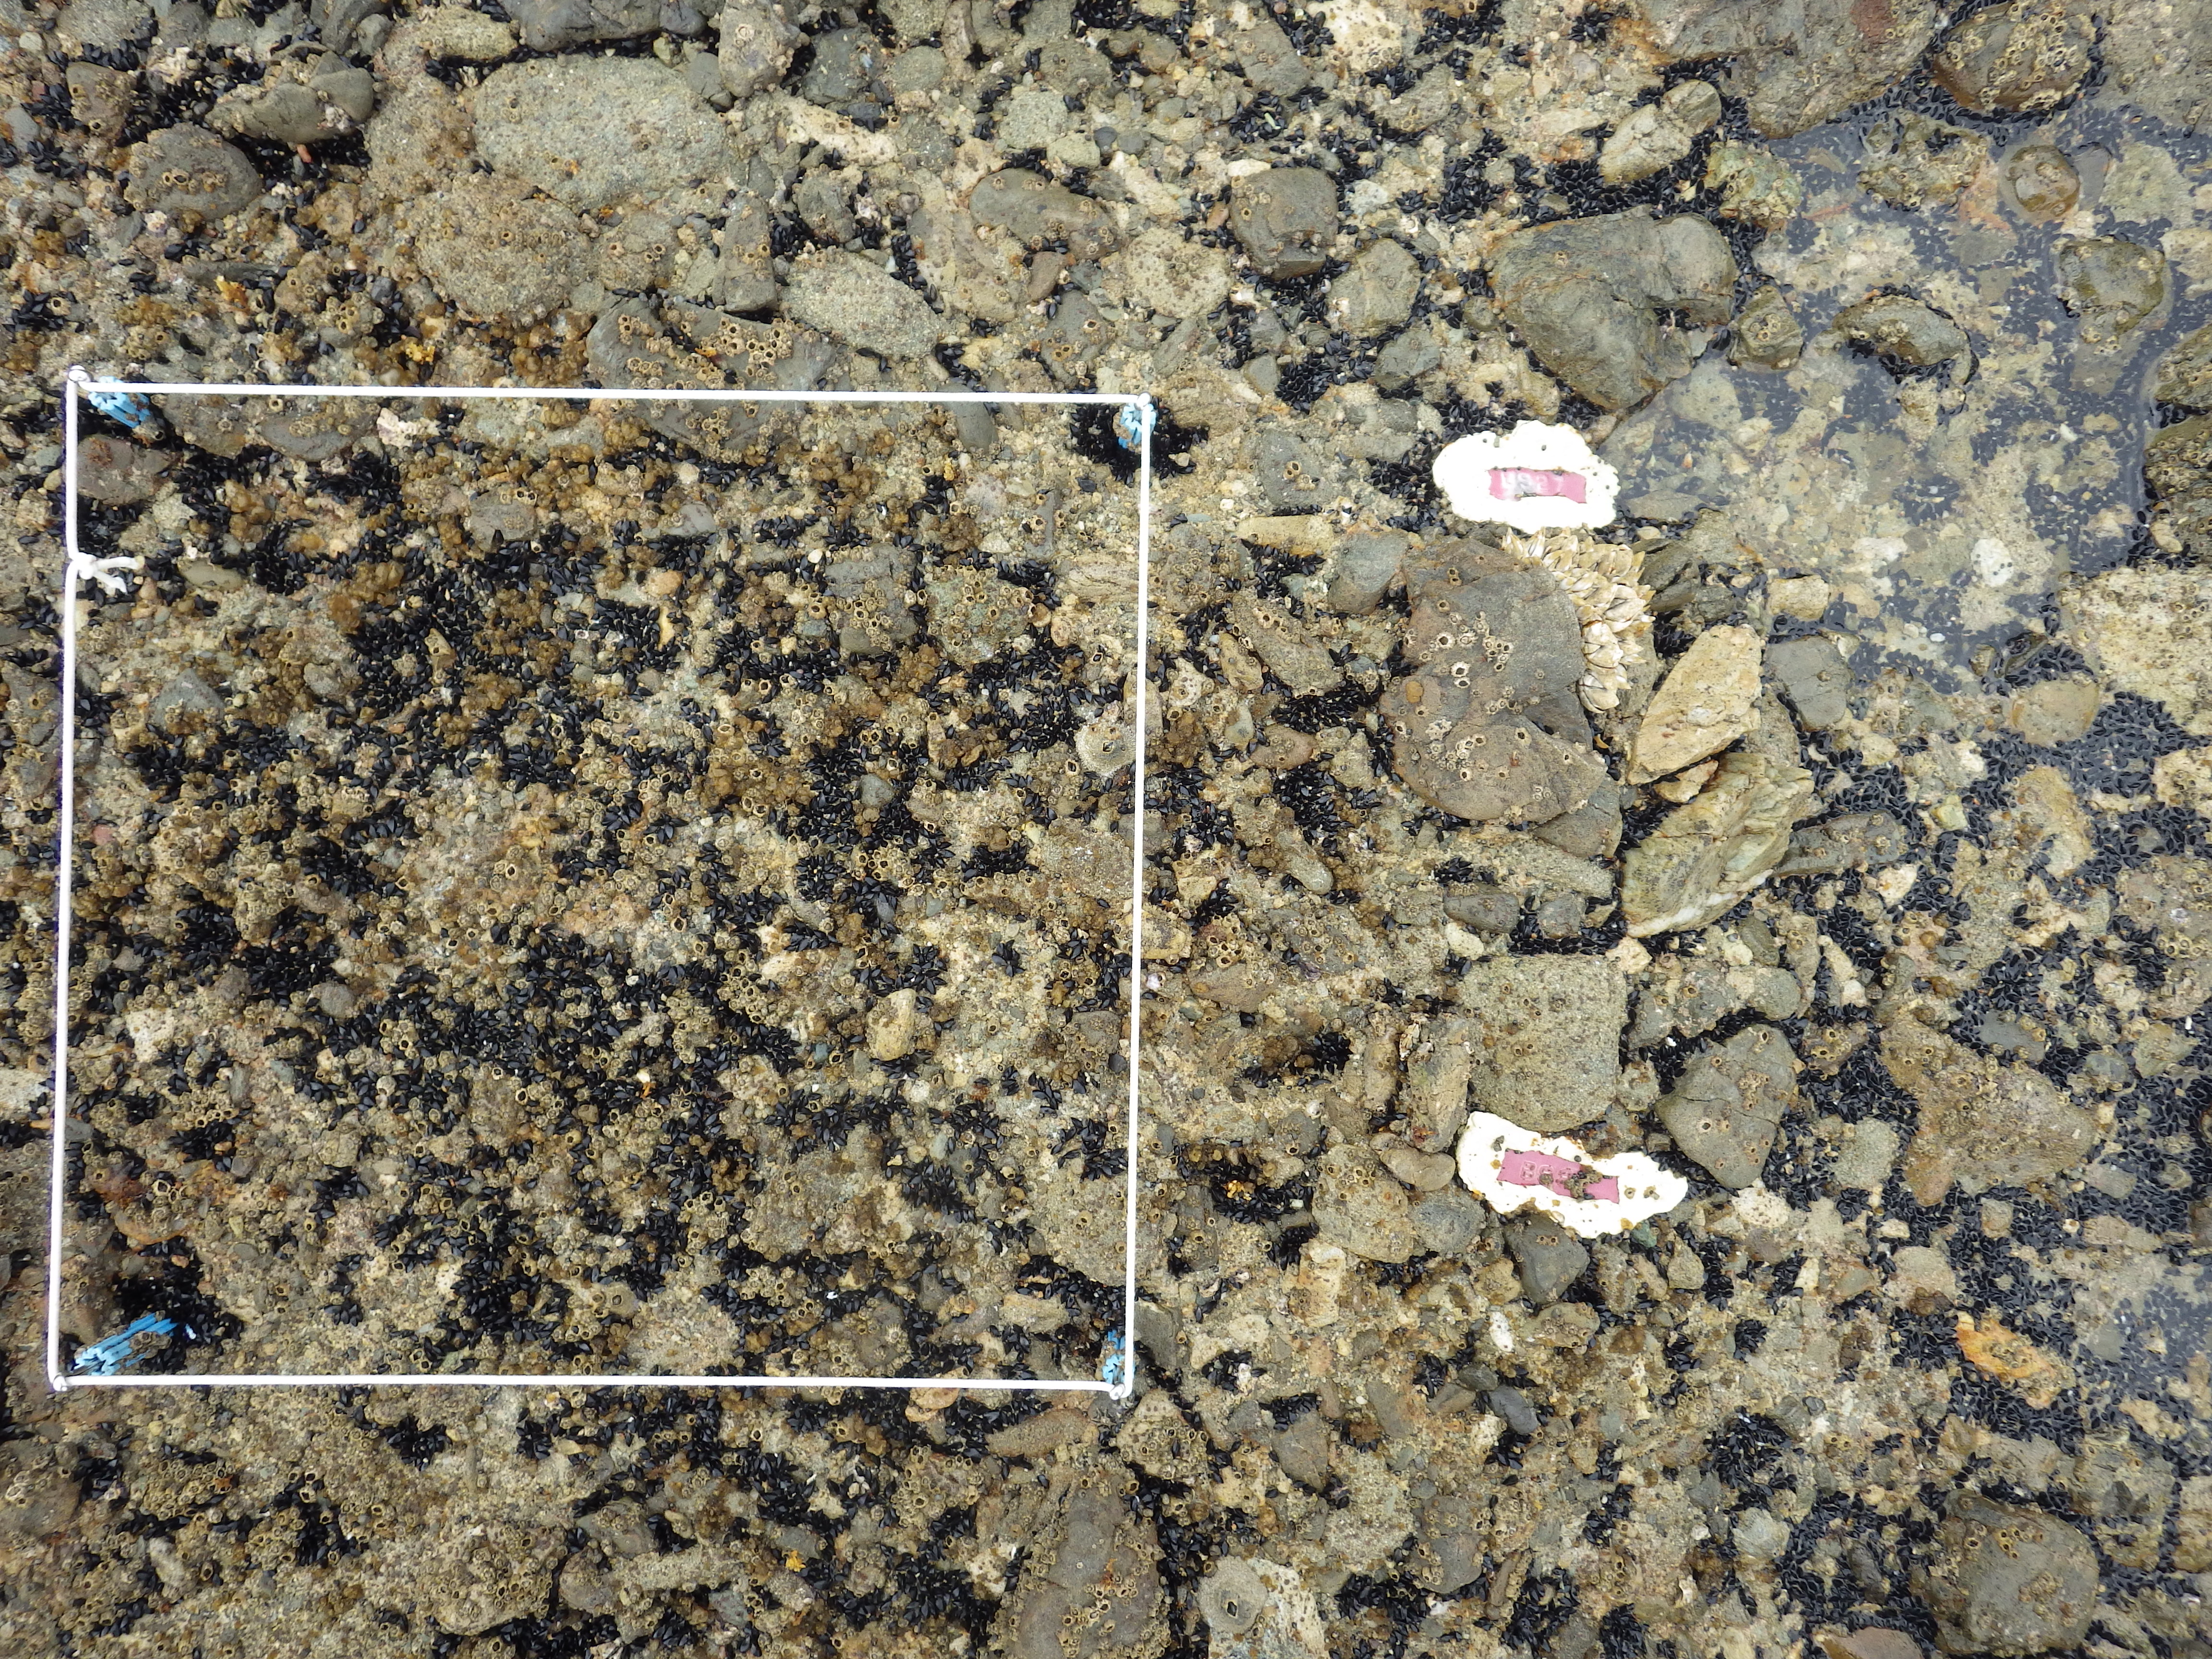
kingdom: Animalia
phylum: Arthropoda
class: Maxillopoda
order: Sessilia
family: Chthamalidae
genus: Chthamalus
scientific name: Chthamalus challengeri
